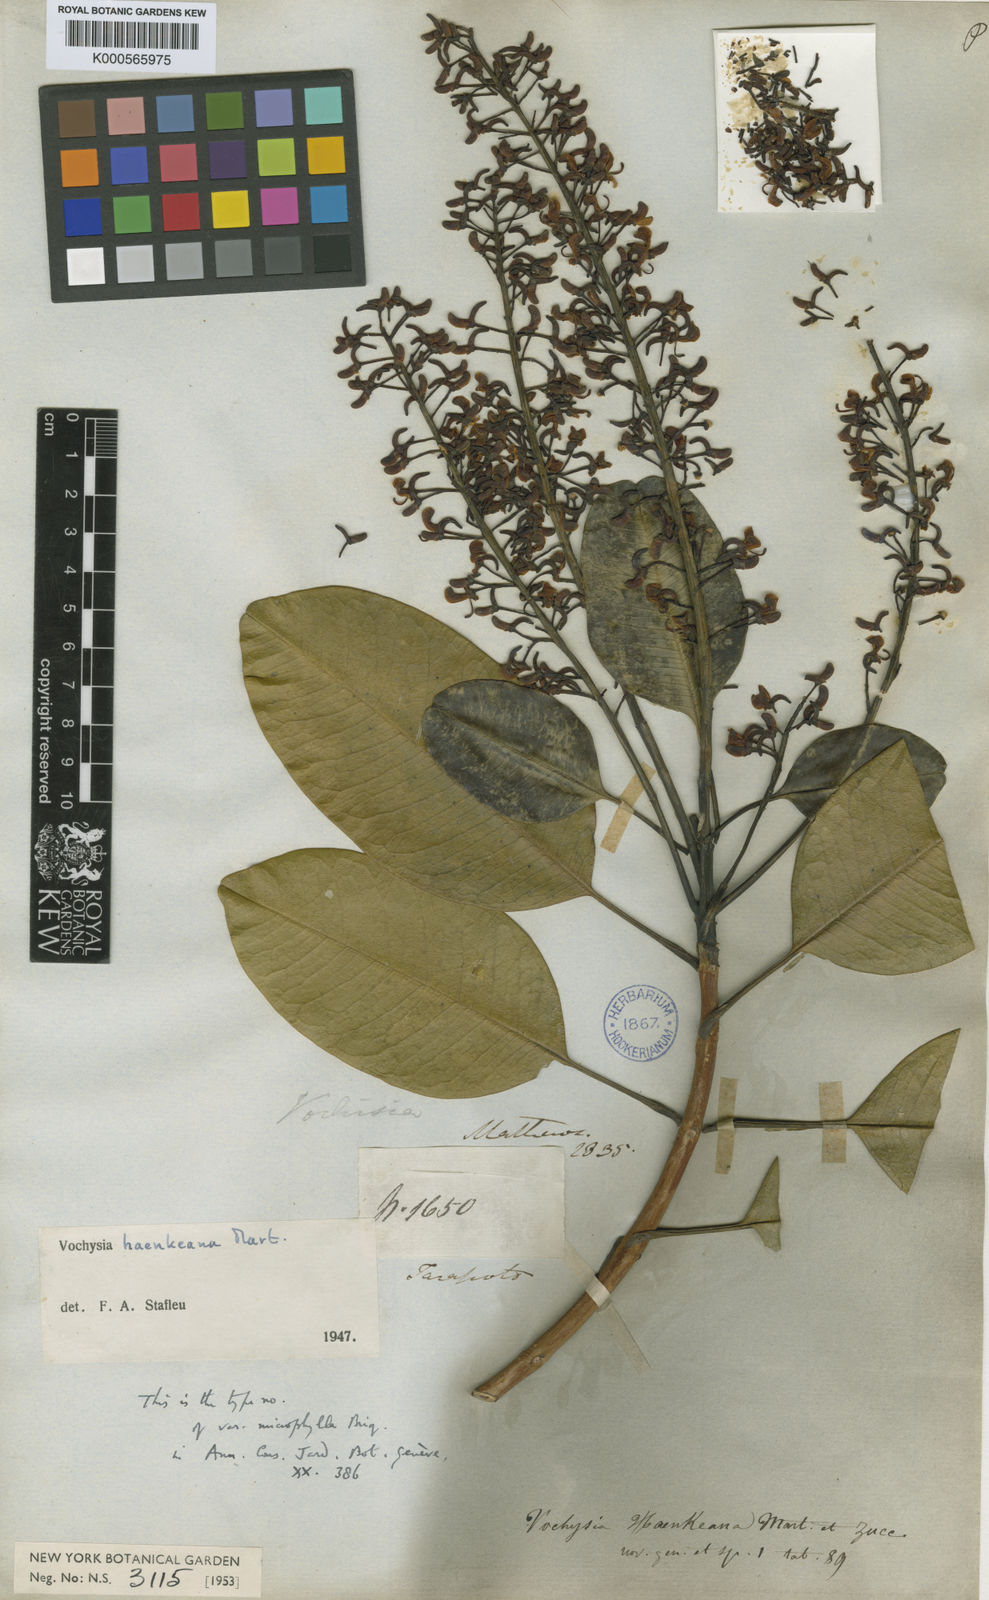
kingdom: Plantae
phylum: Tracheophyta
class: Magnoliopsida
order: Myrtales
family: Vochysiaceae
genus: Vochysia
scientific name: Vochysia haenkeana
